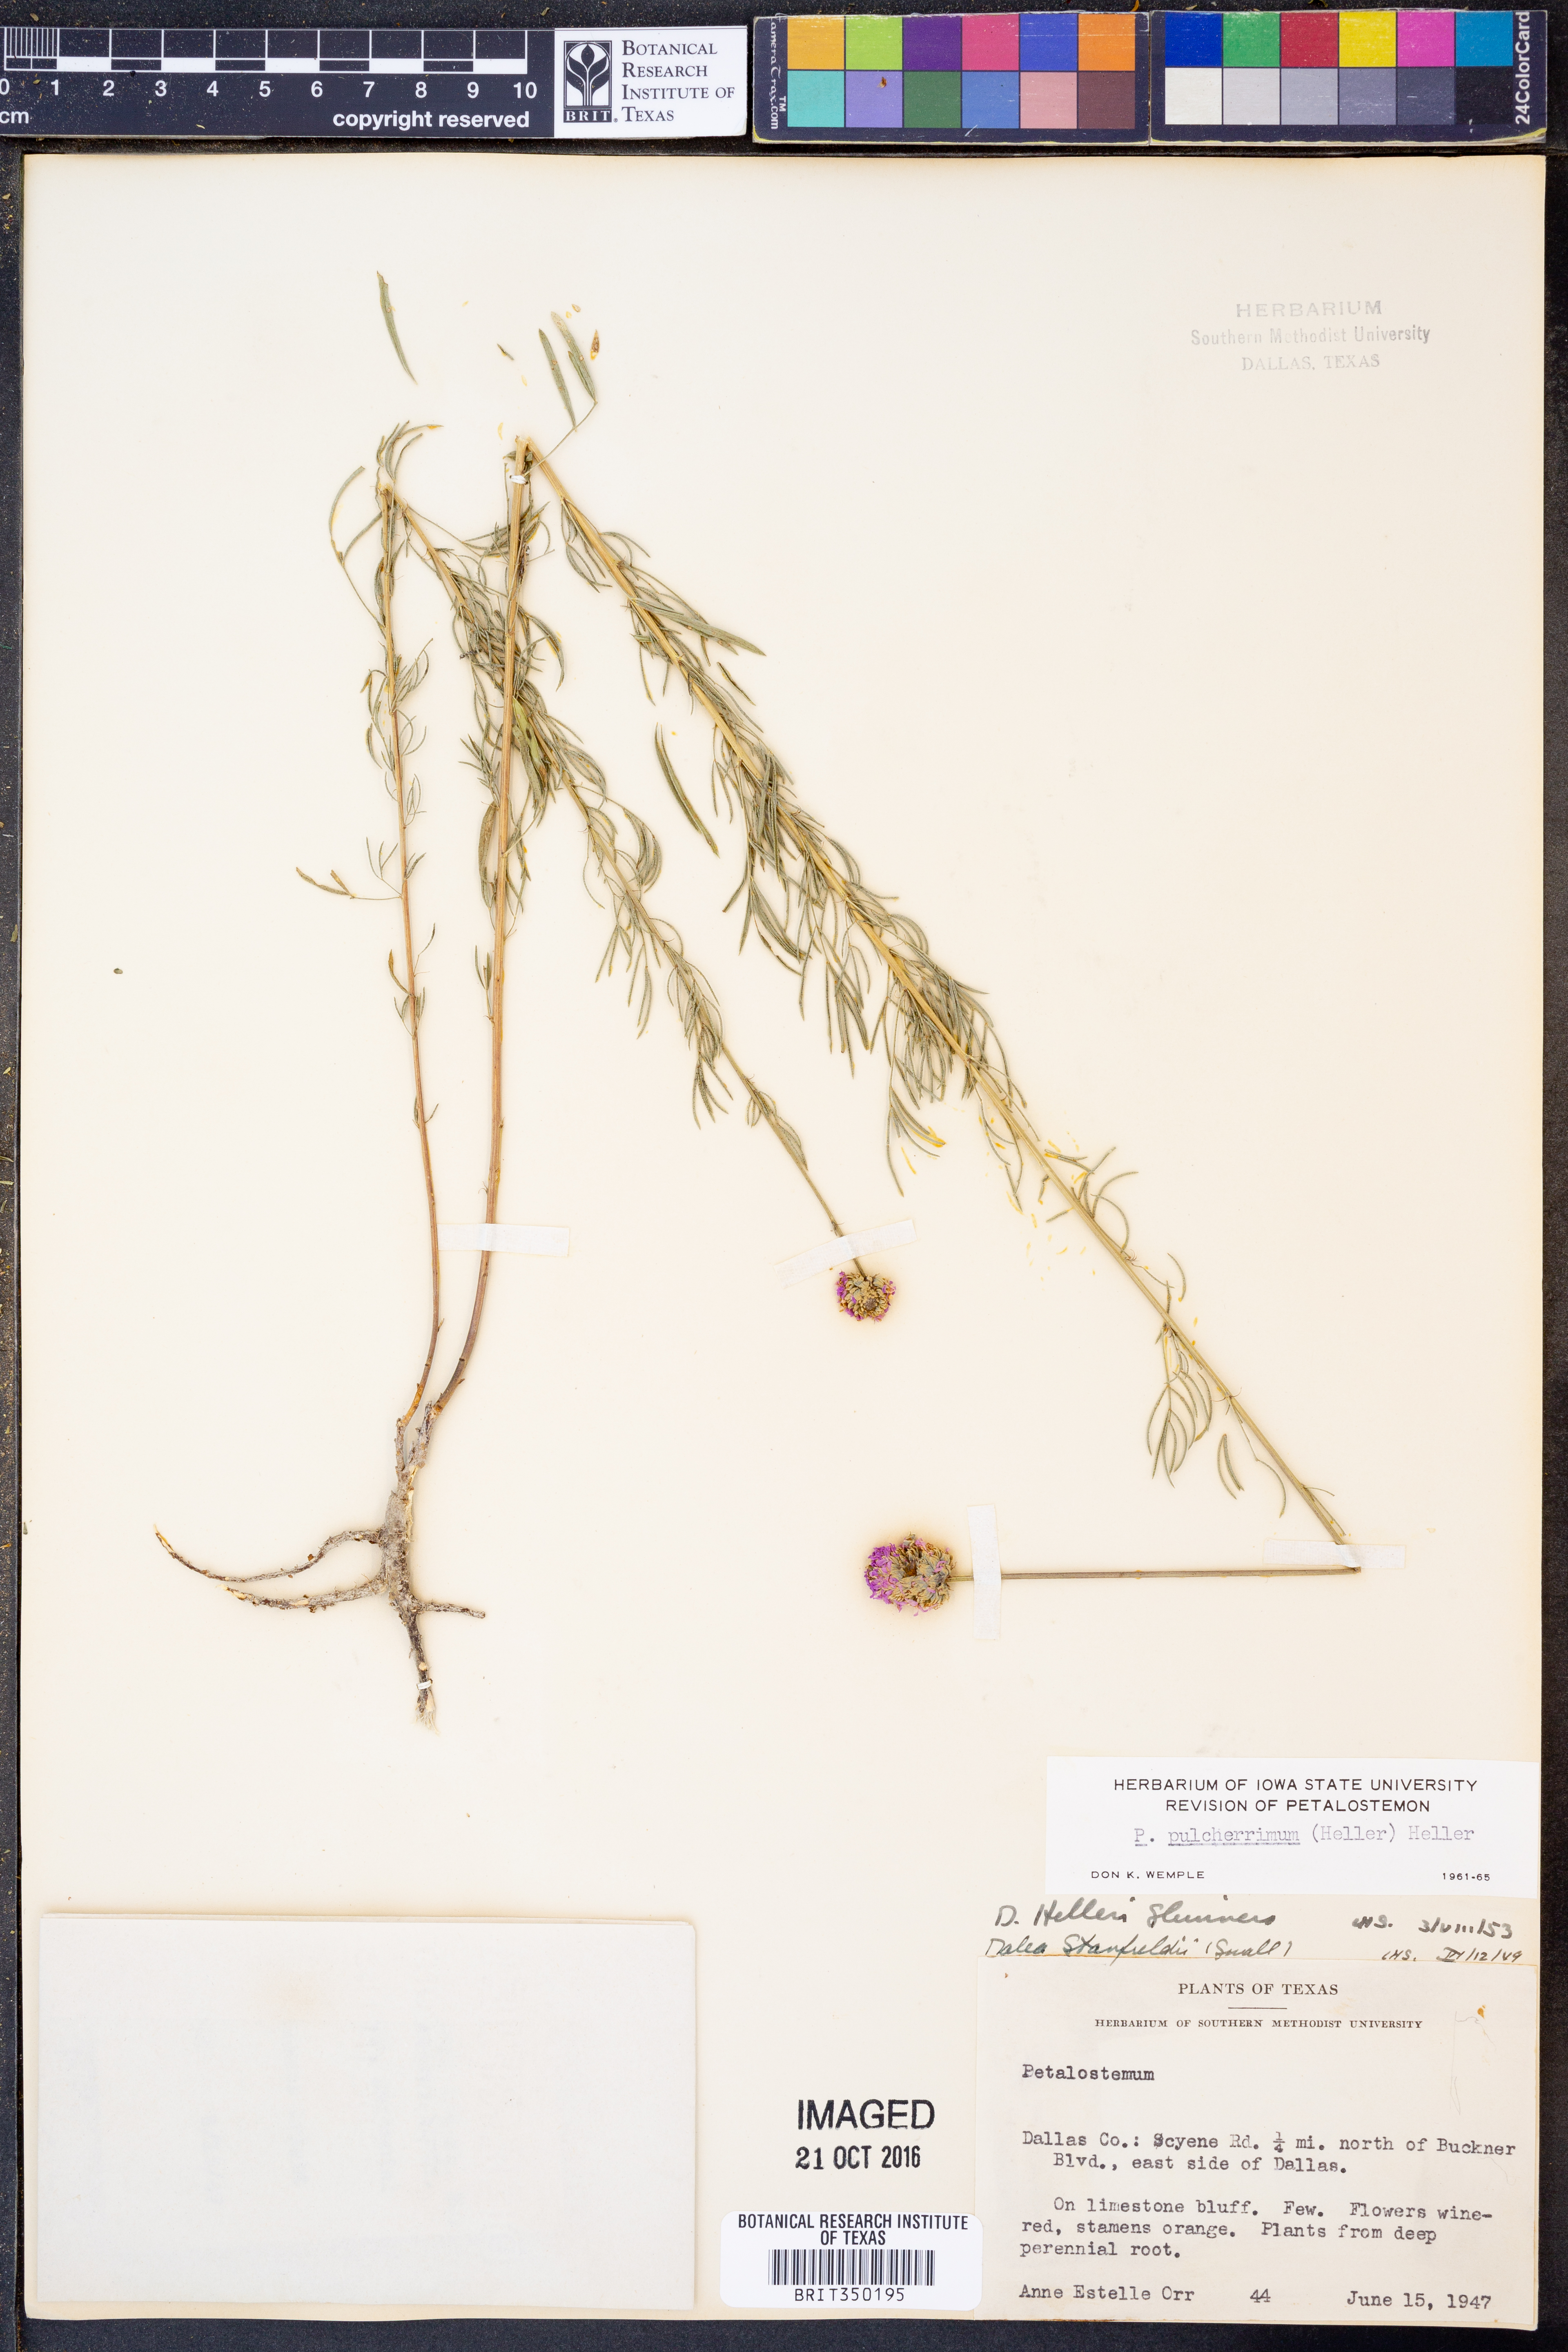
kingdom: Plantae
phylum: Tracheophyta
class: Magnoliopsida
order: Fabales
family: Fabaceae
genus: Dalea
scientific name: Dalea compacta
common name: Compact prairie-clover
